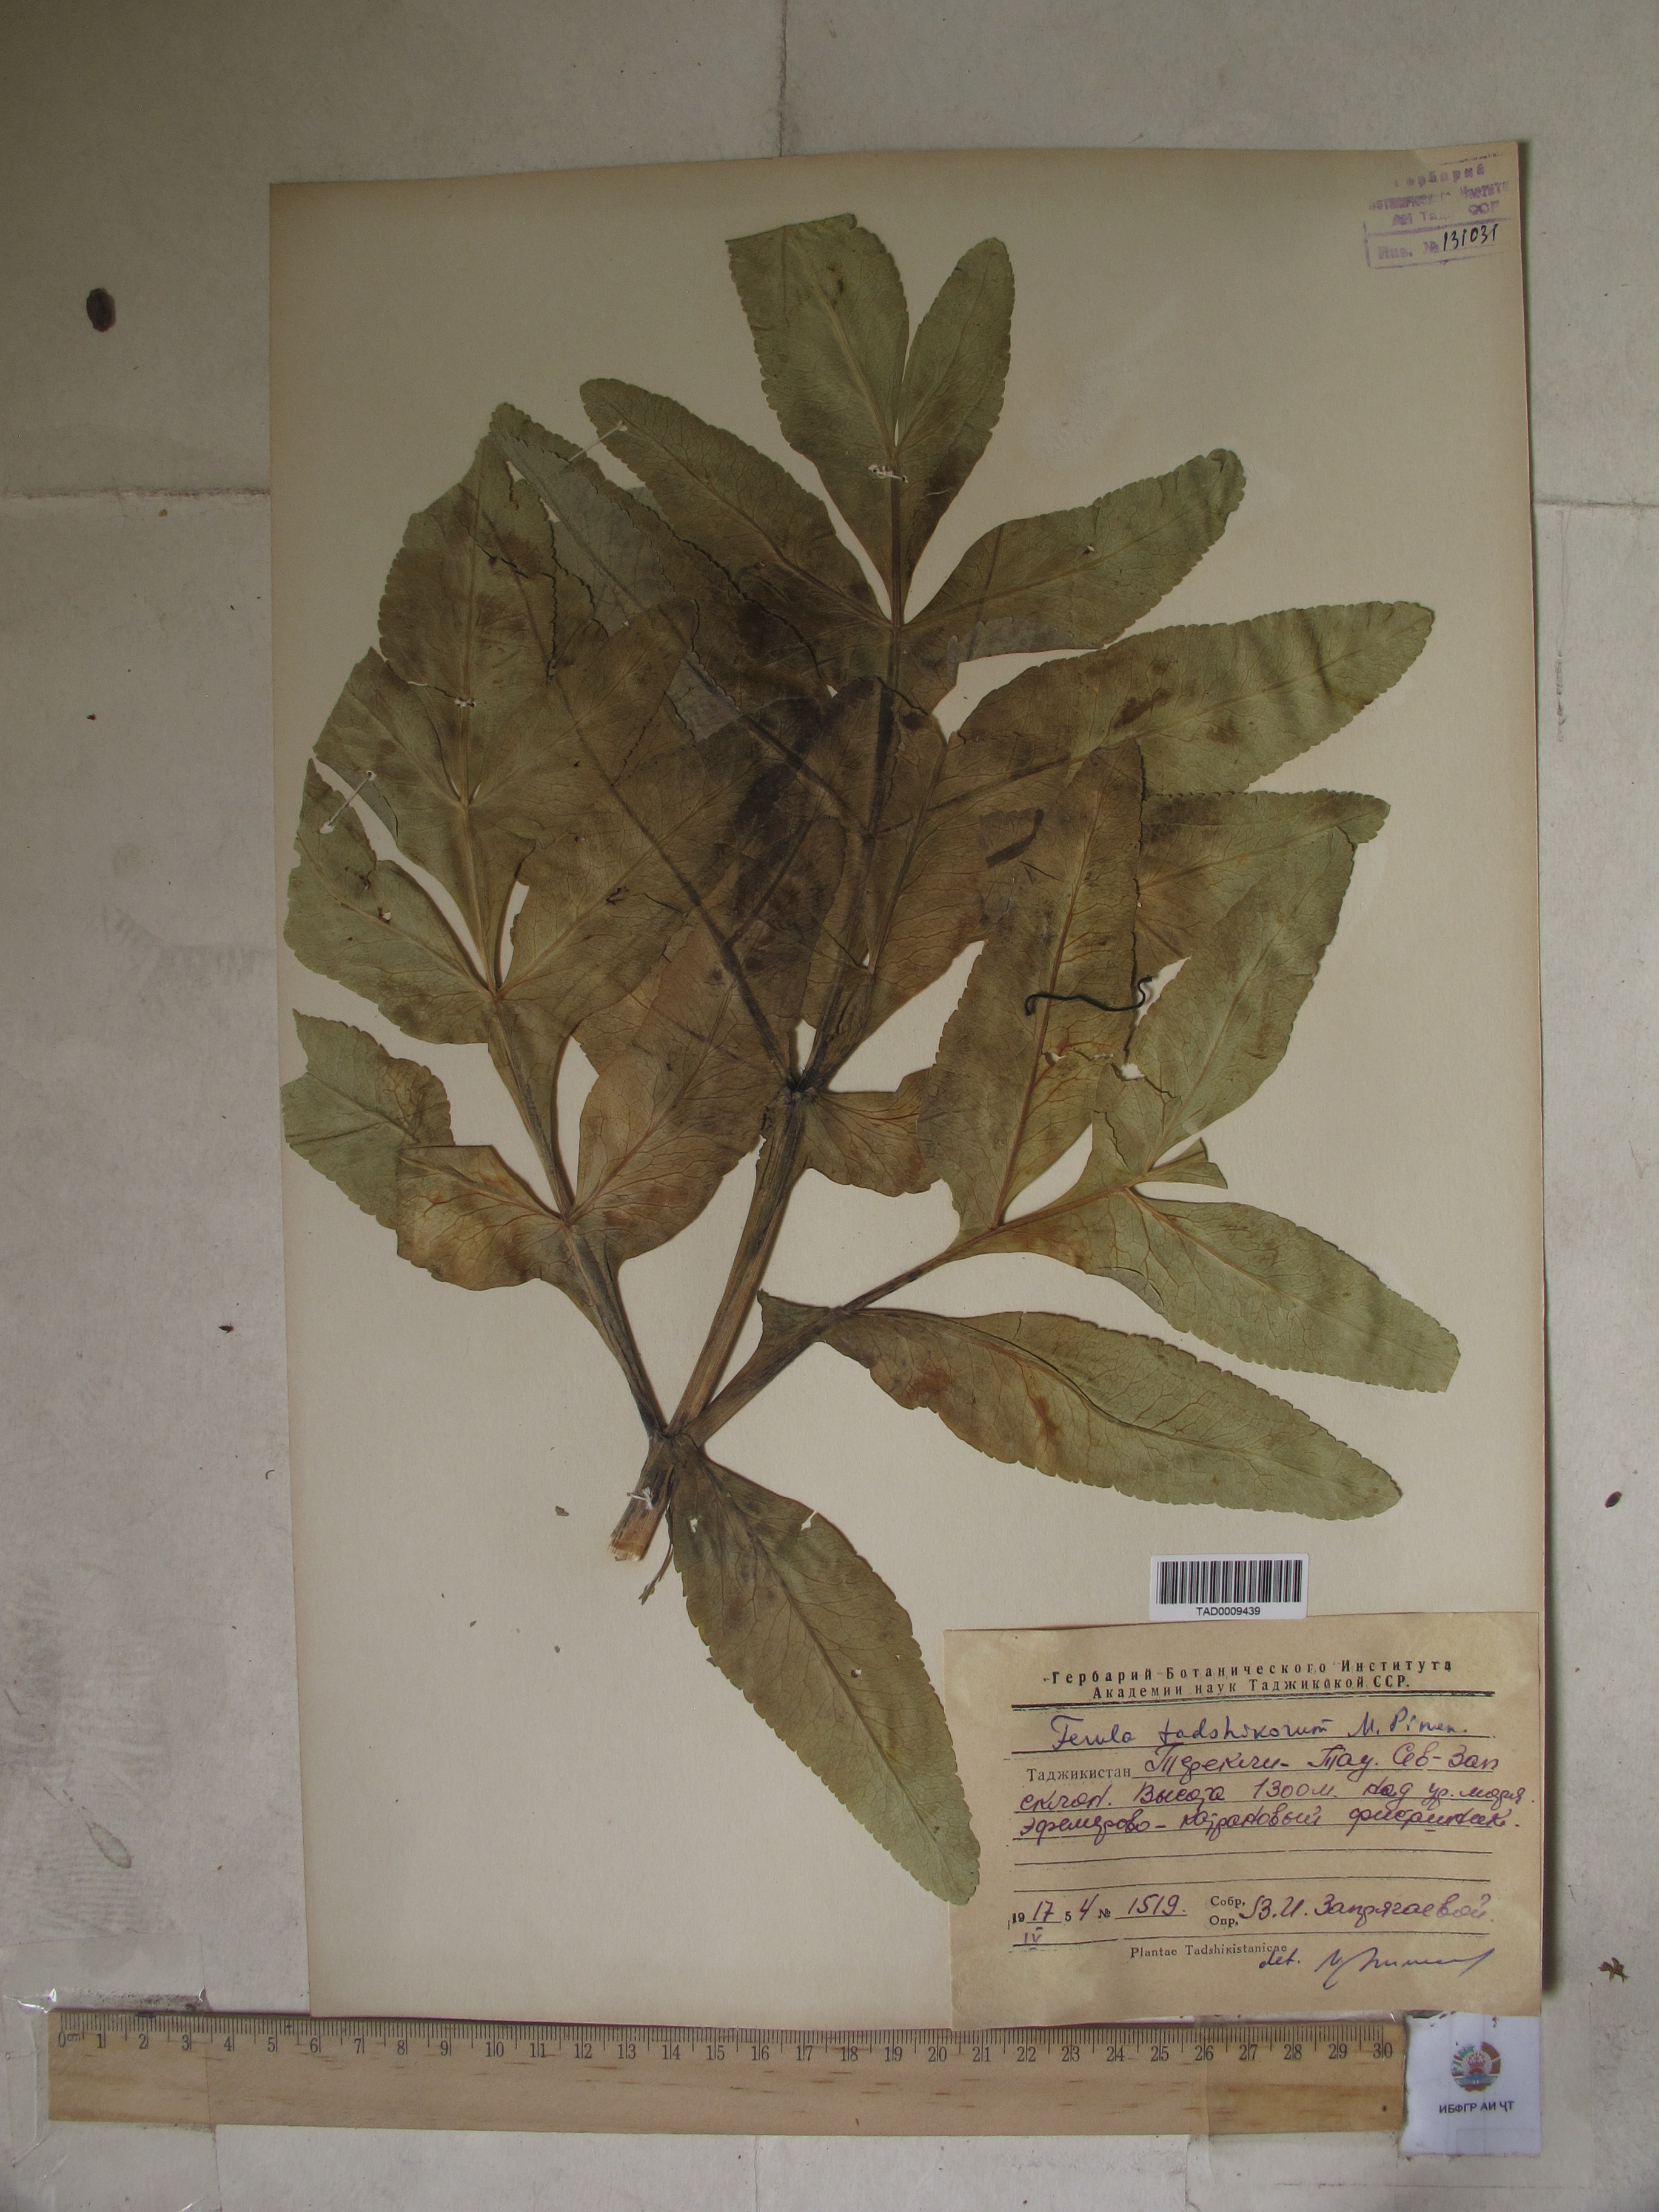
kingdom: Plantae
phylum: Tracheophyta
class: Magnoliopsida
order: Apiales
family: Apiaceae
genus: Ferula
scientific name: Ferula tadshikorum
